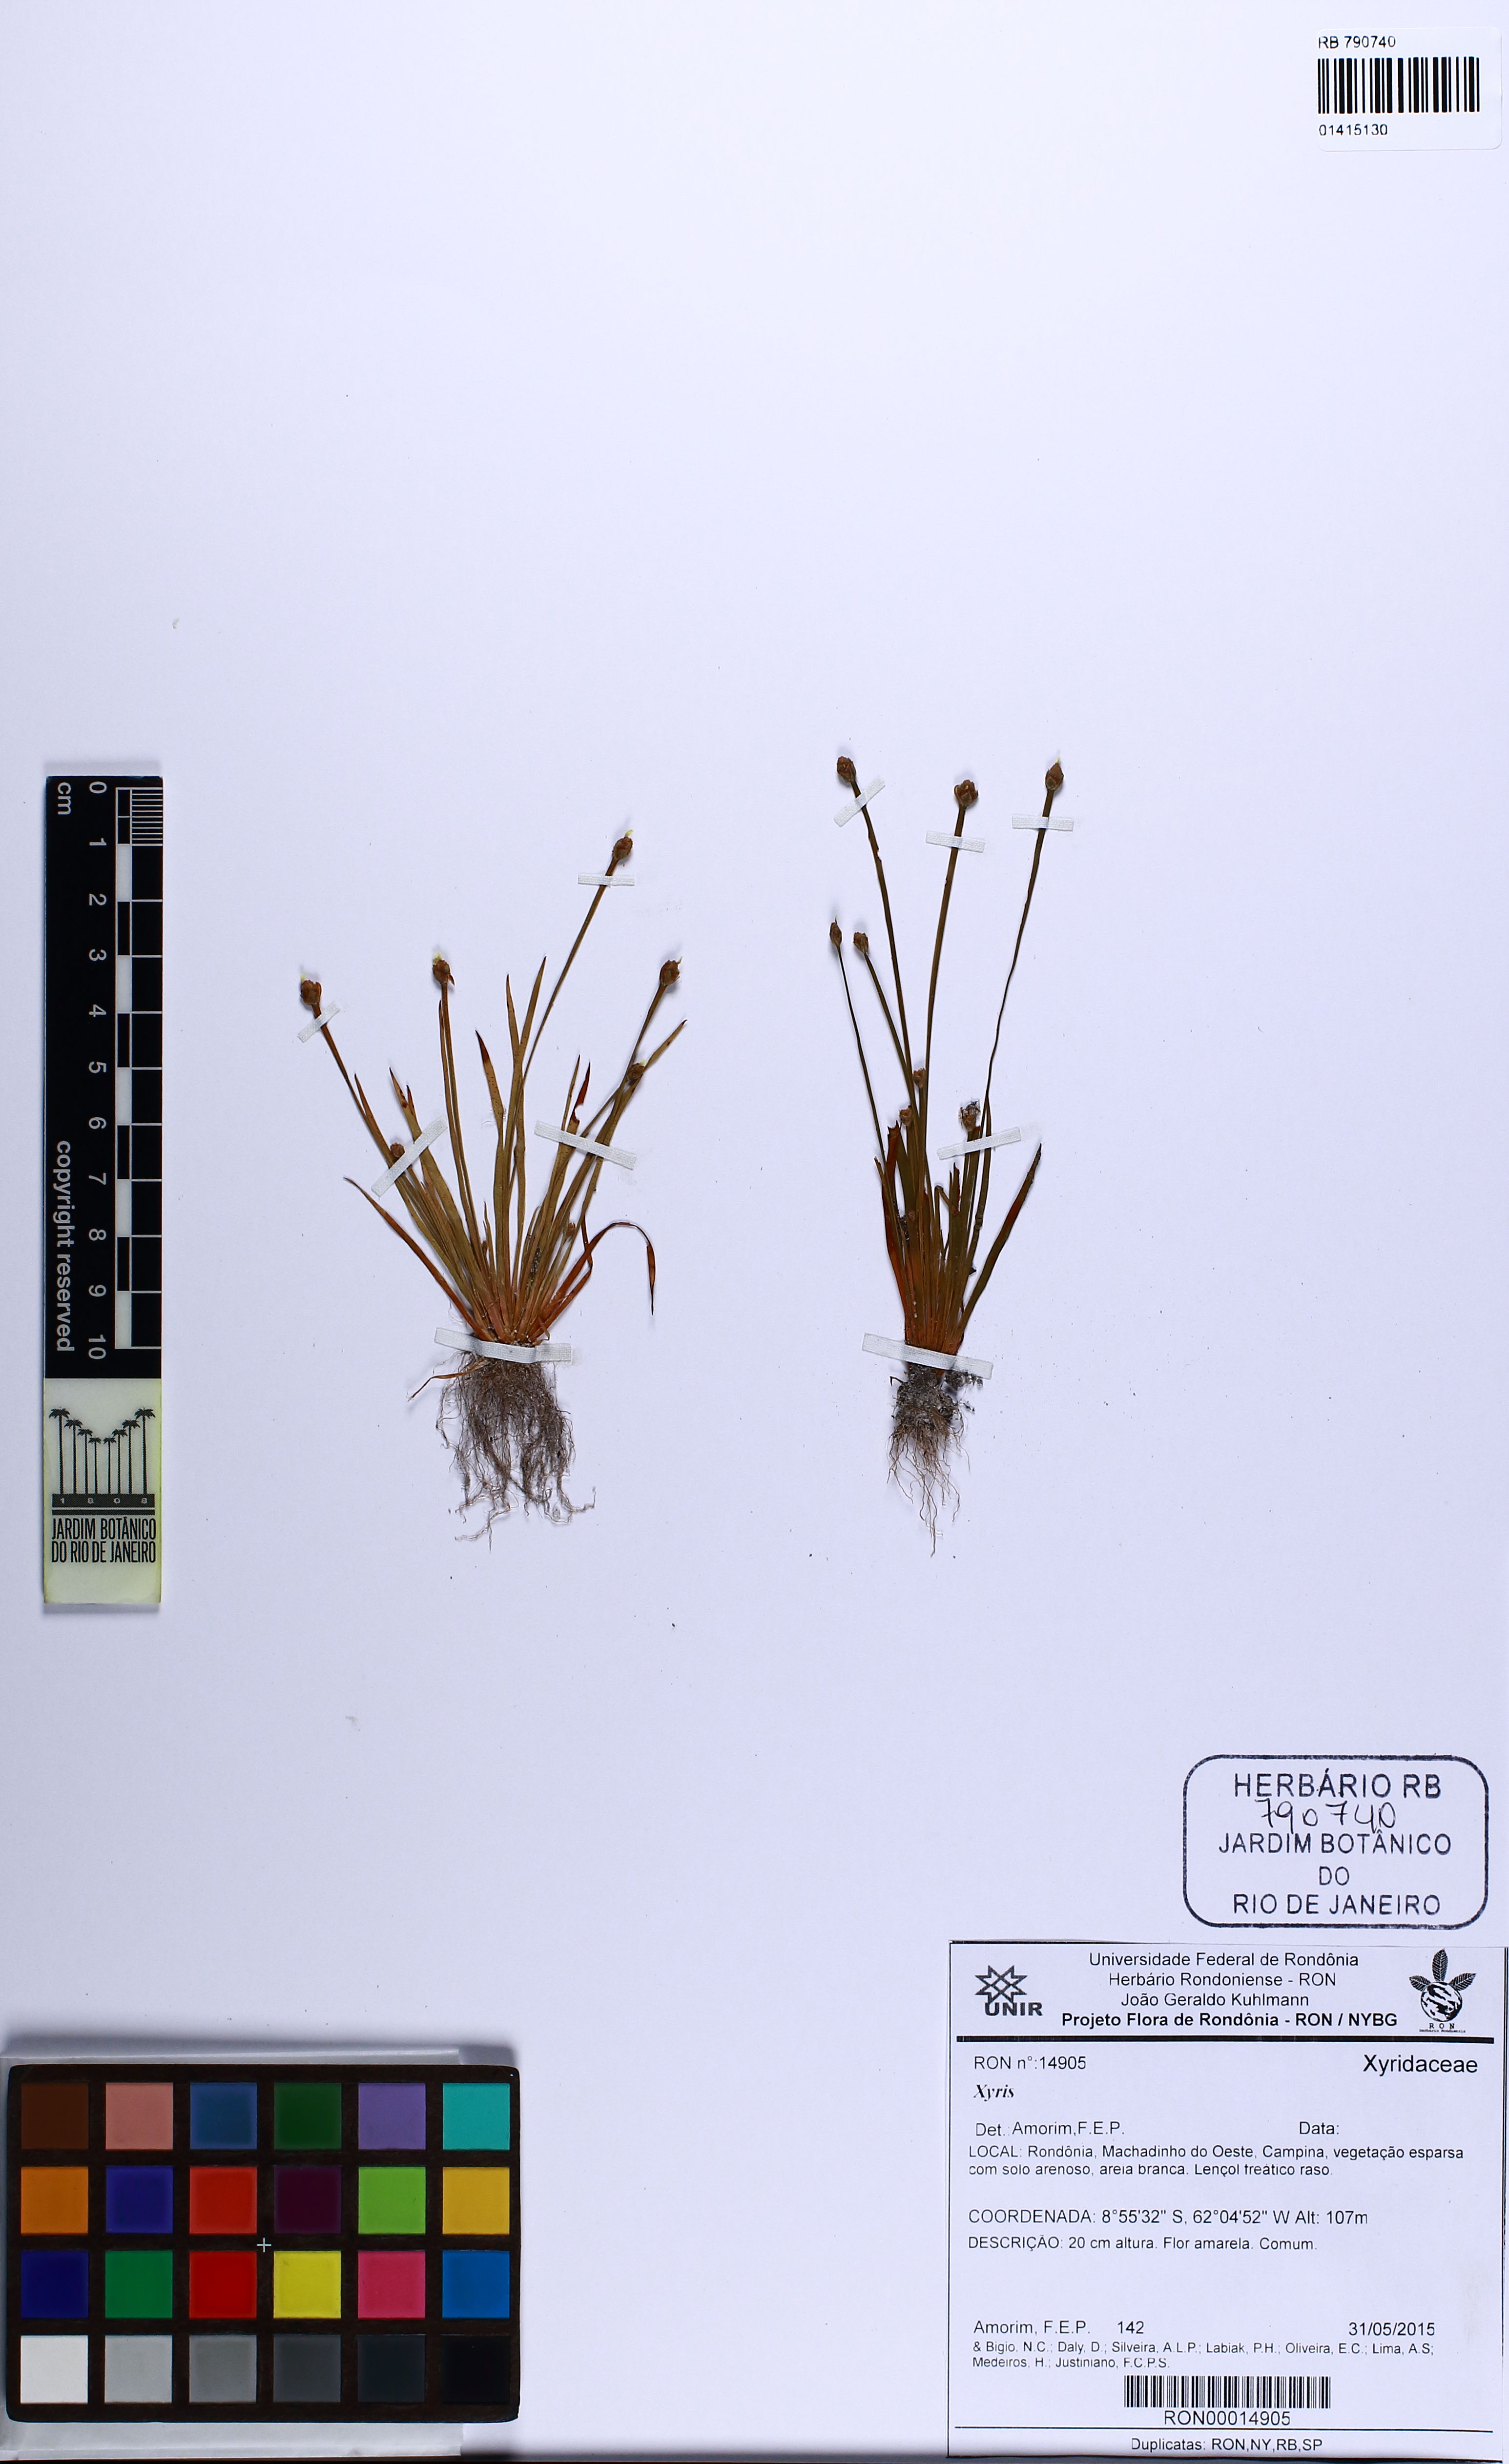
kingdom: Plantae
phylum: Tracheophyta
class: Liliopsida
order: Poales
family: Xyridaceae
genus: Xyris
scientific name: Xyris
